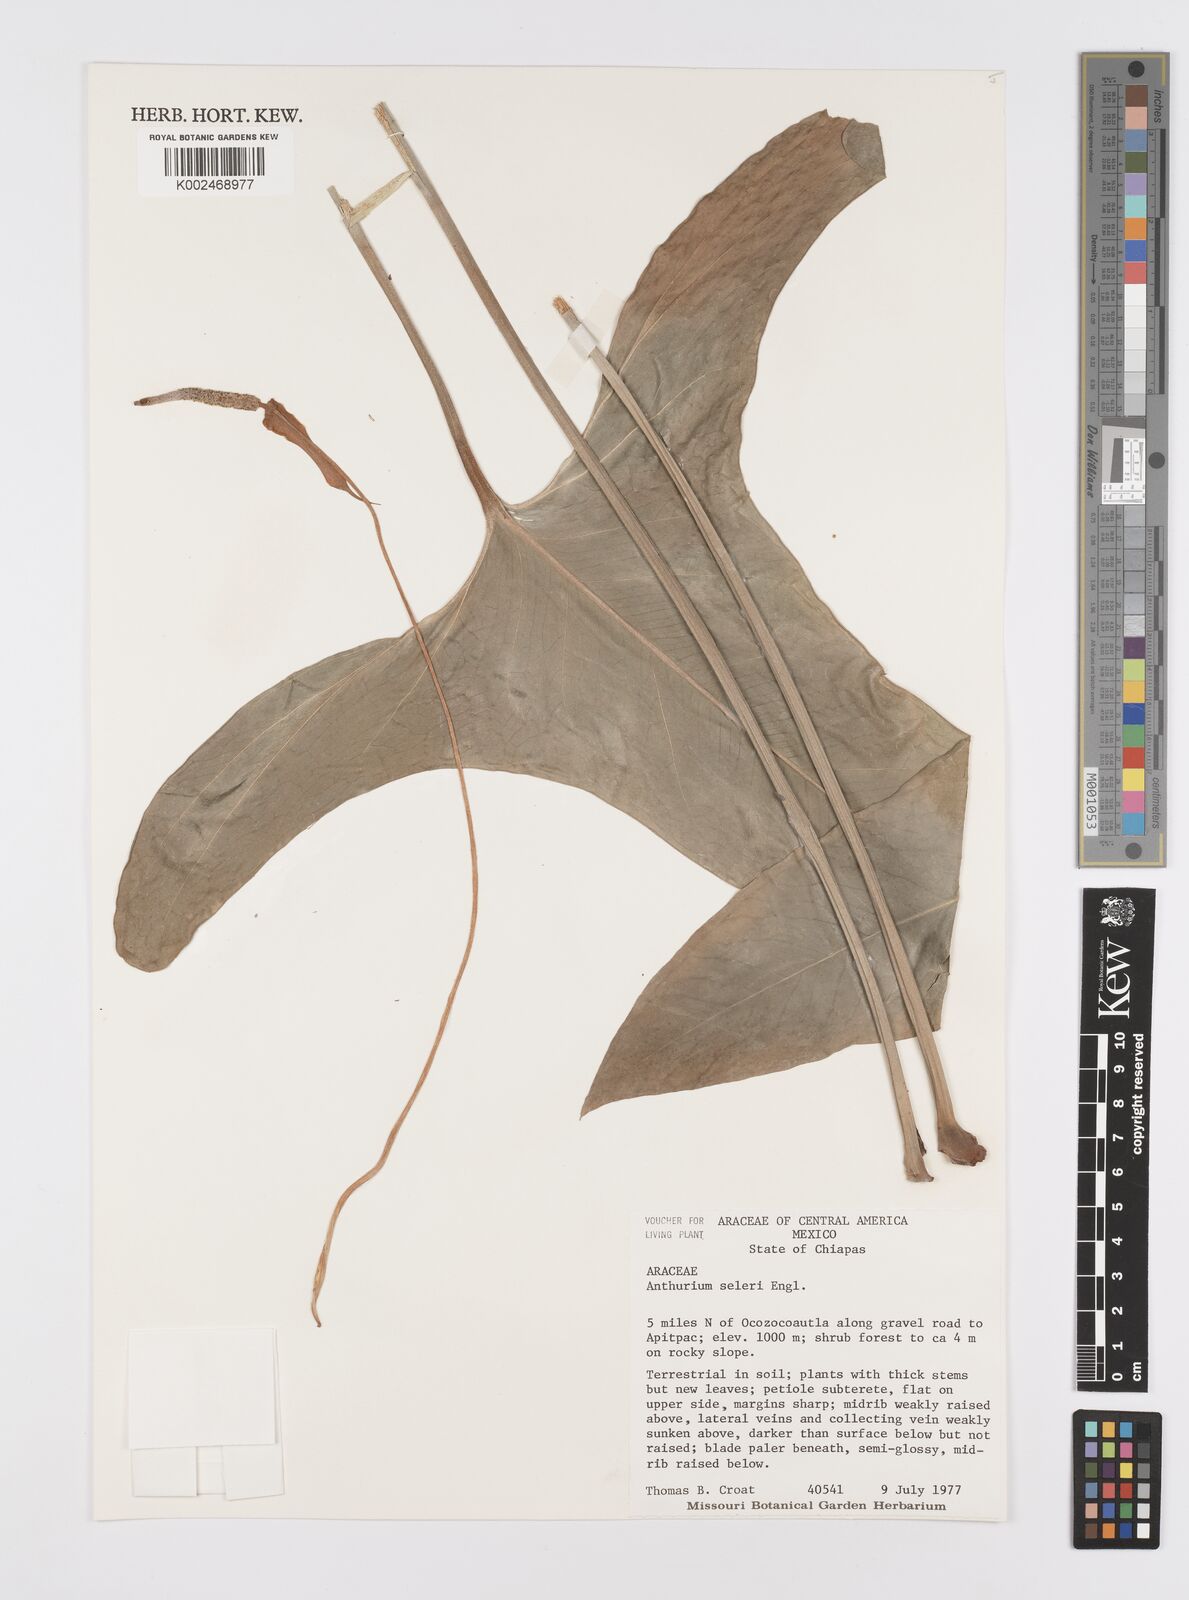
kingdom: Plantae
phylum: Tracheophyta
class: Liliopsida
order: Alismatales
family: Araceae
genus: Anthurium
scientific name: Anthurium seleri
